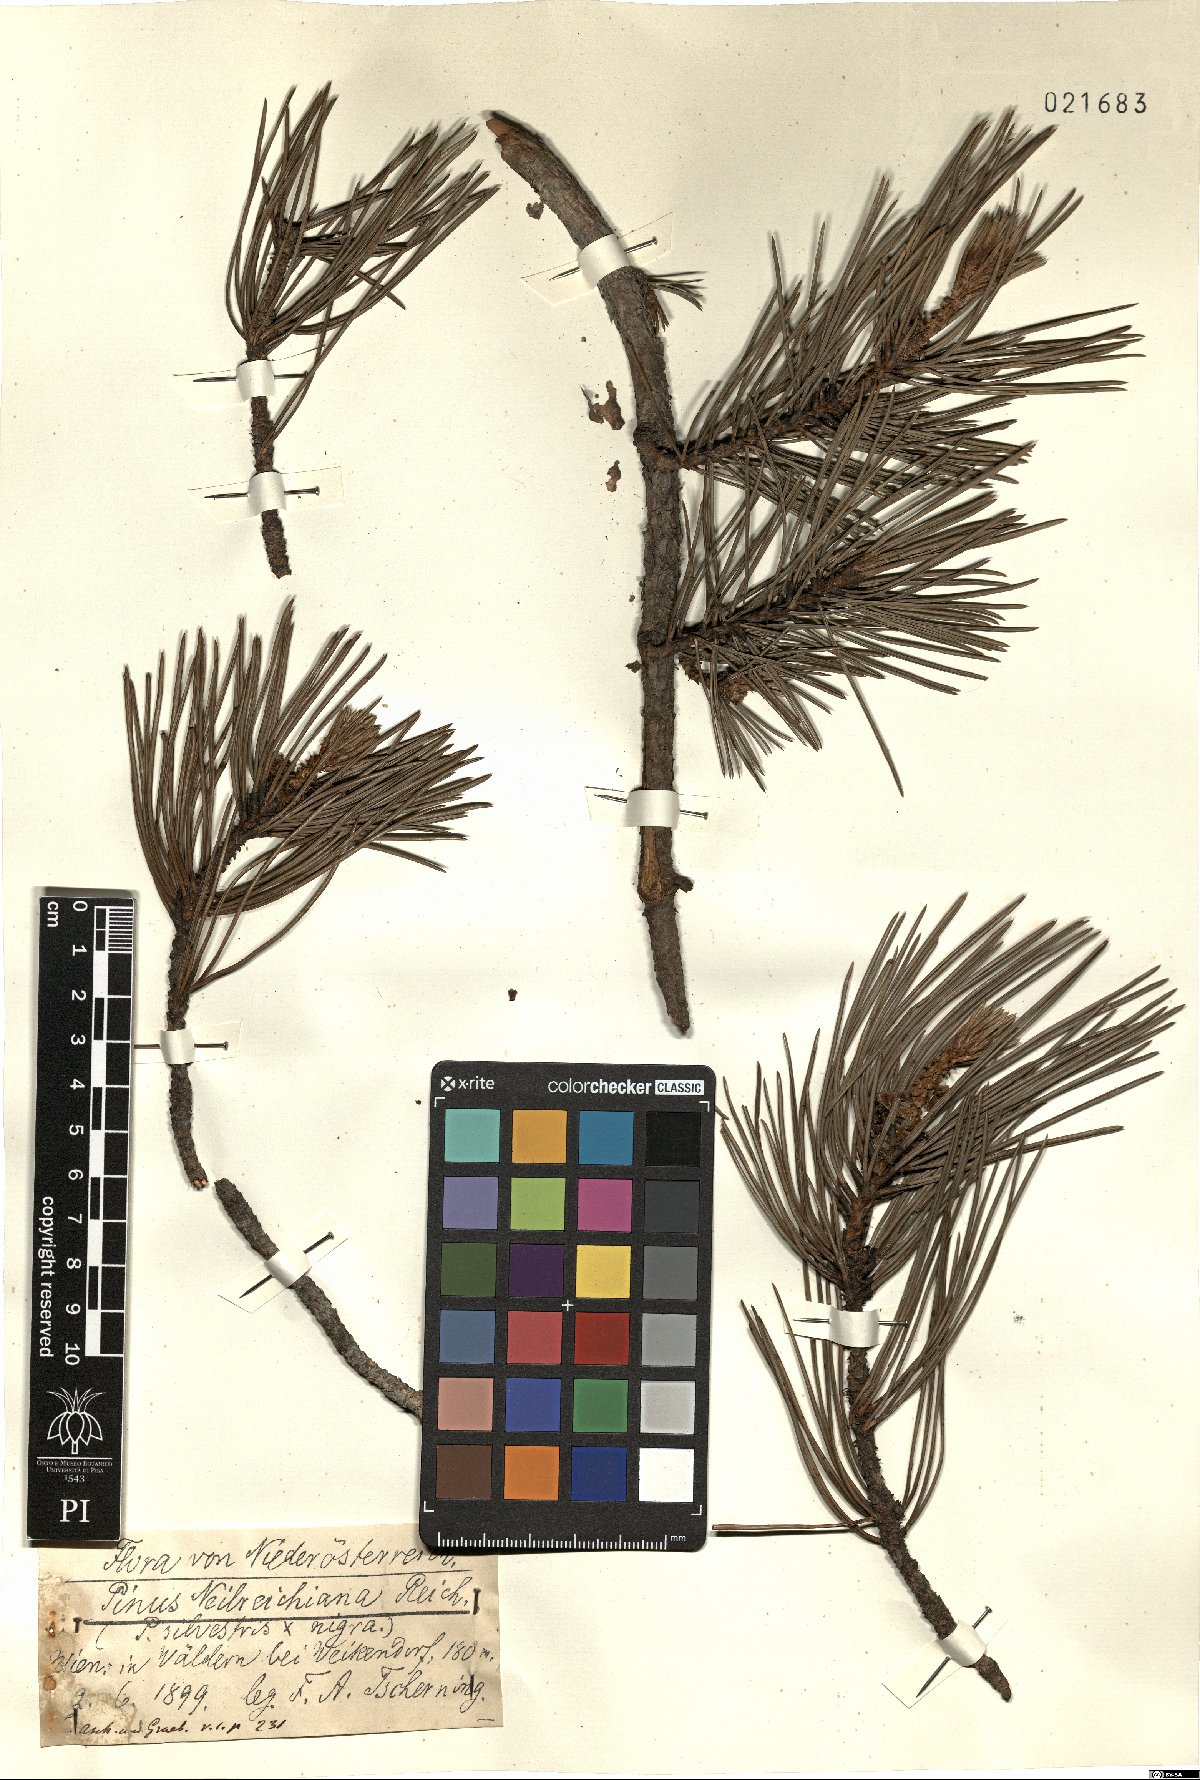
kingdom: Plantae
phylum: Tracheophyta
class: Pinopsida
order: Pinales
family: Pinaceae
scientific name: Pinaceae
